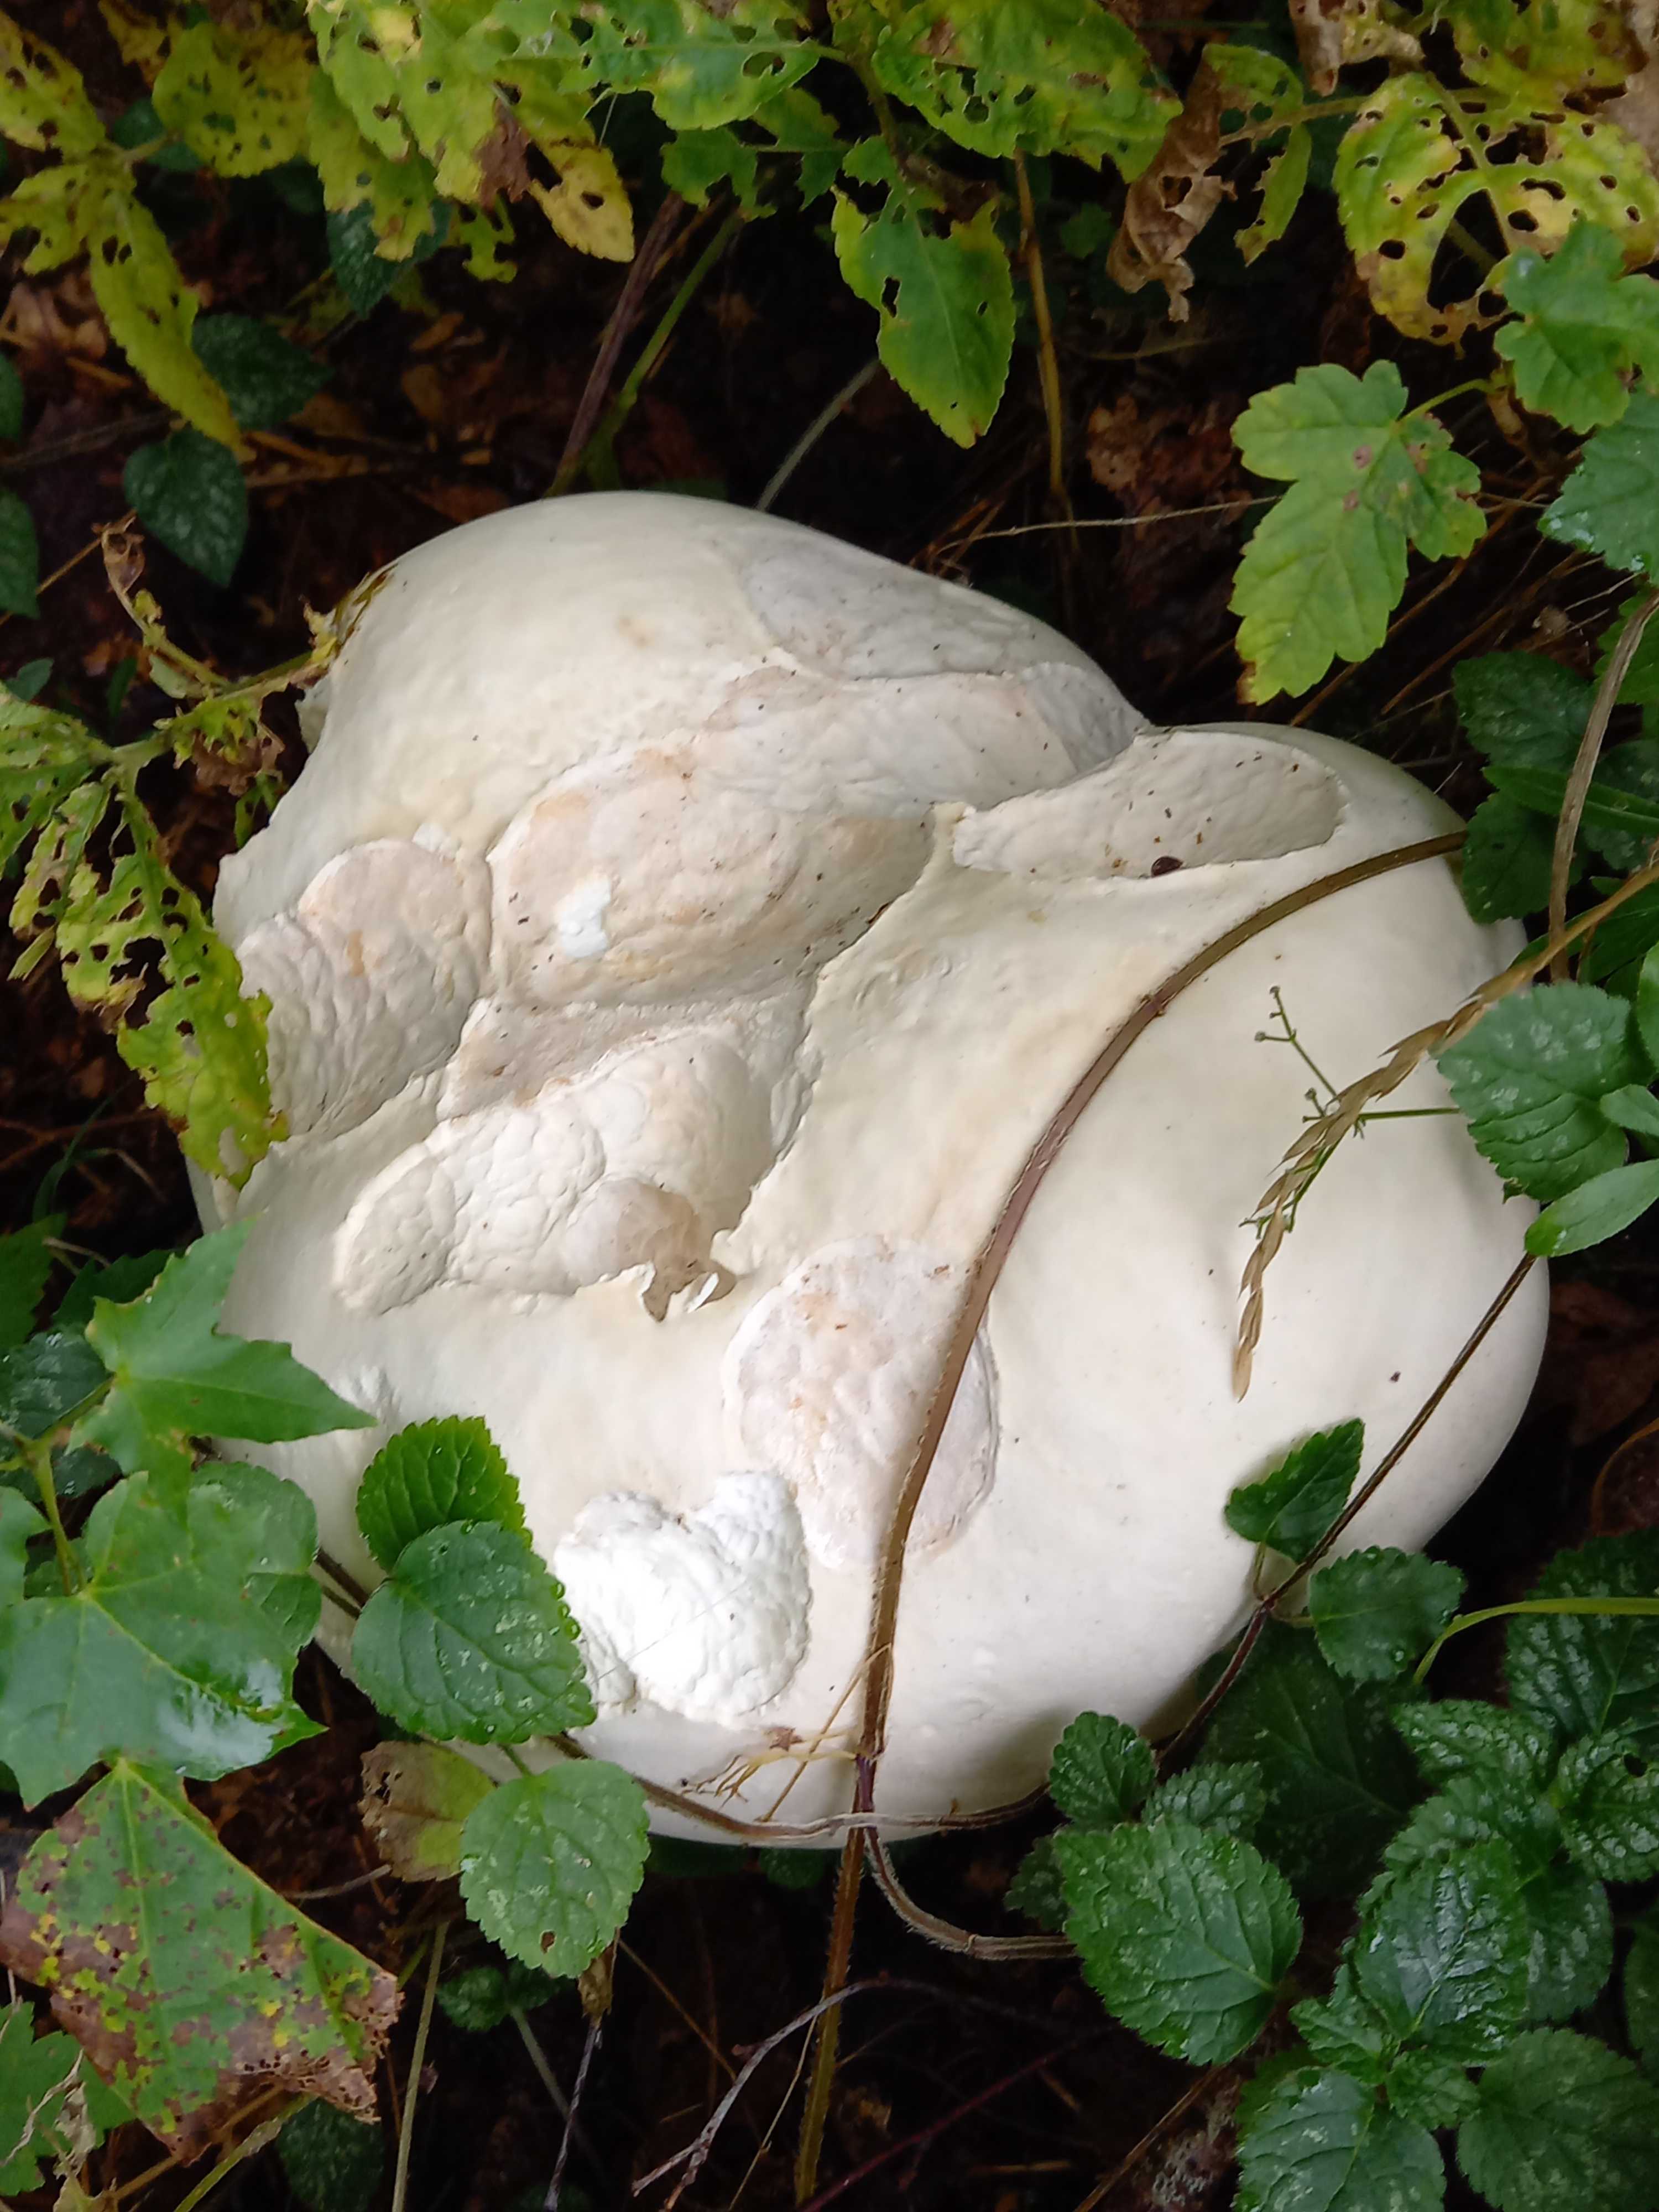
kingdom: Fungi
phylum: Basidiomycota
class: Agaricomycetes
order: Agaricales
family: Lycoperdaceae
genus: Calvatia
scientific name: Calvatia gigantea
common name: kæmpestøvbold
